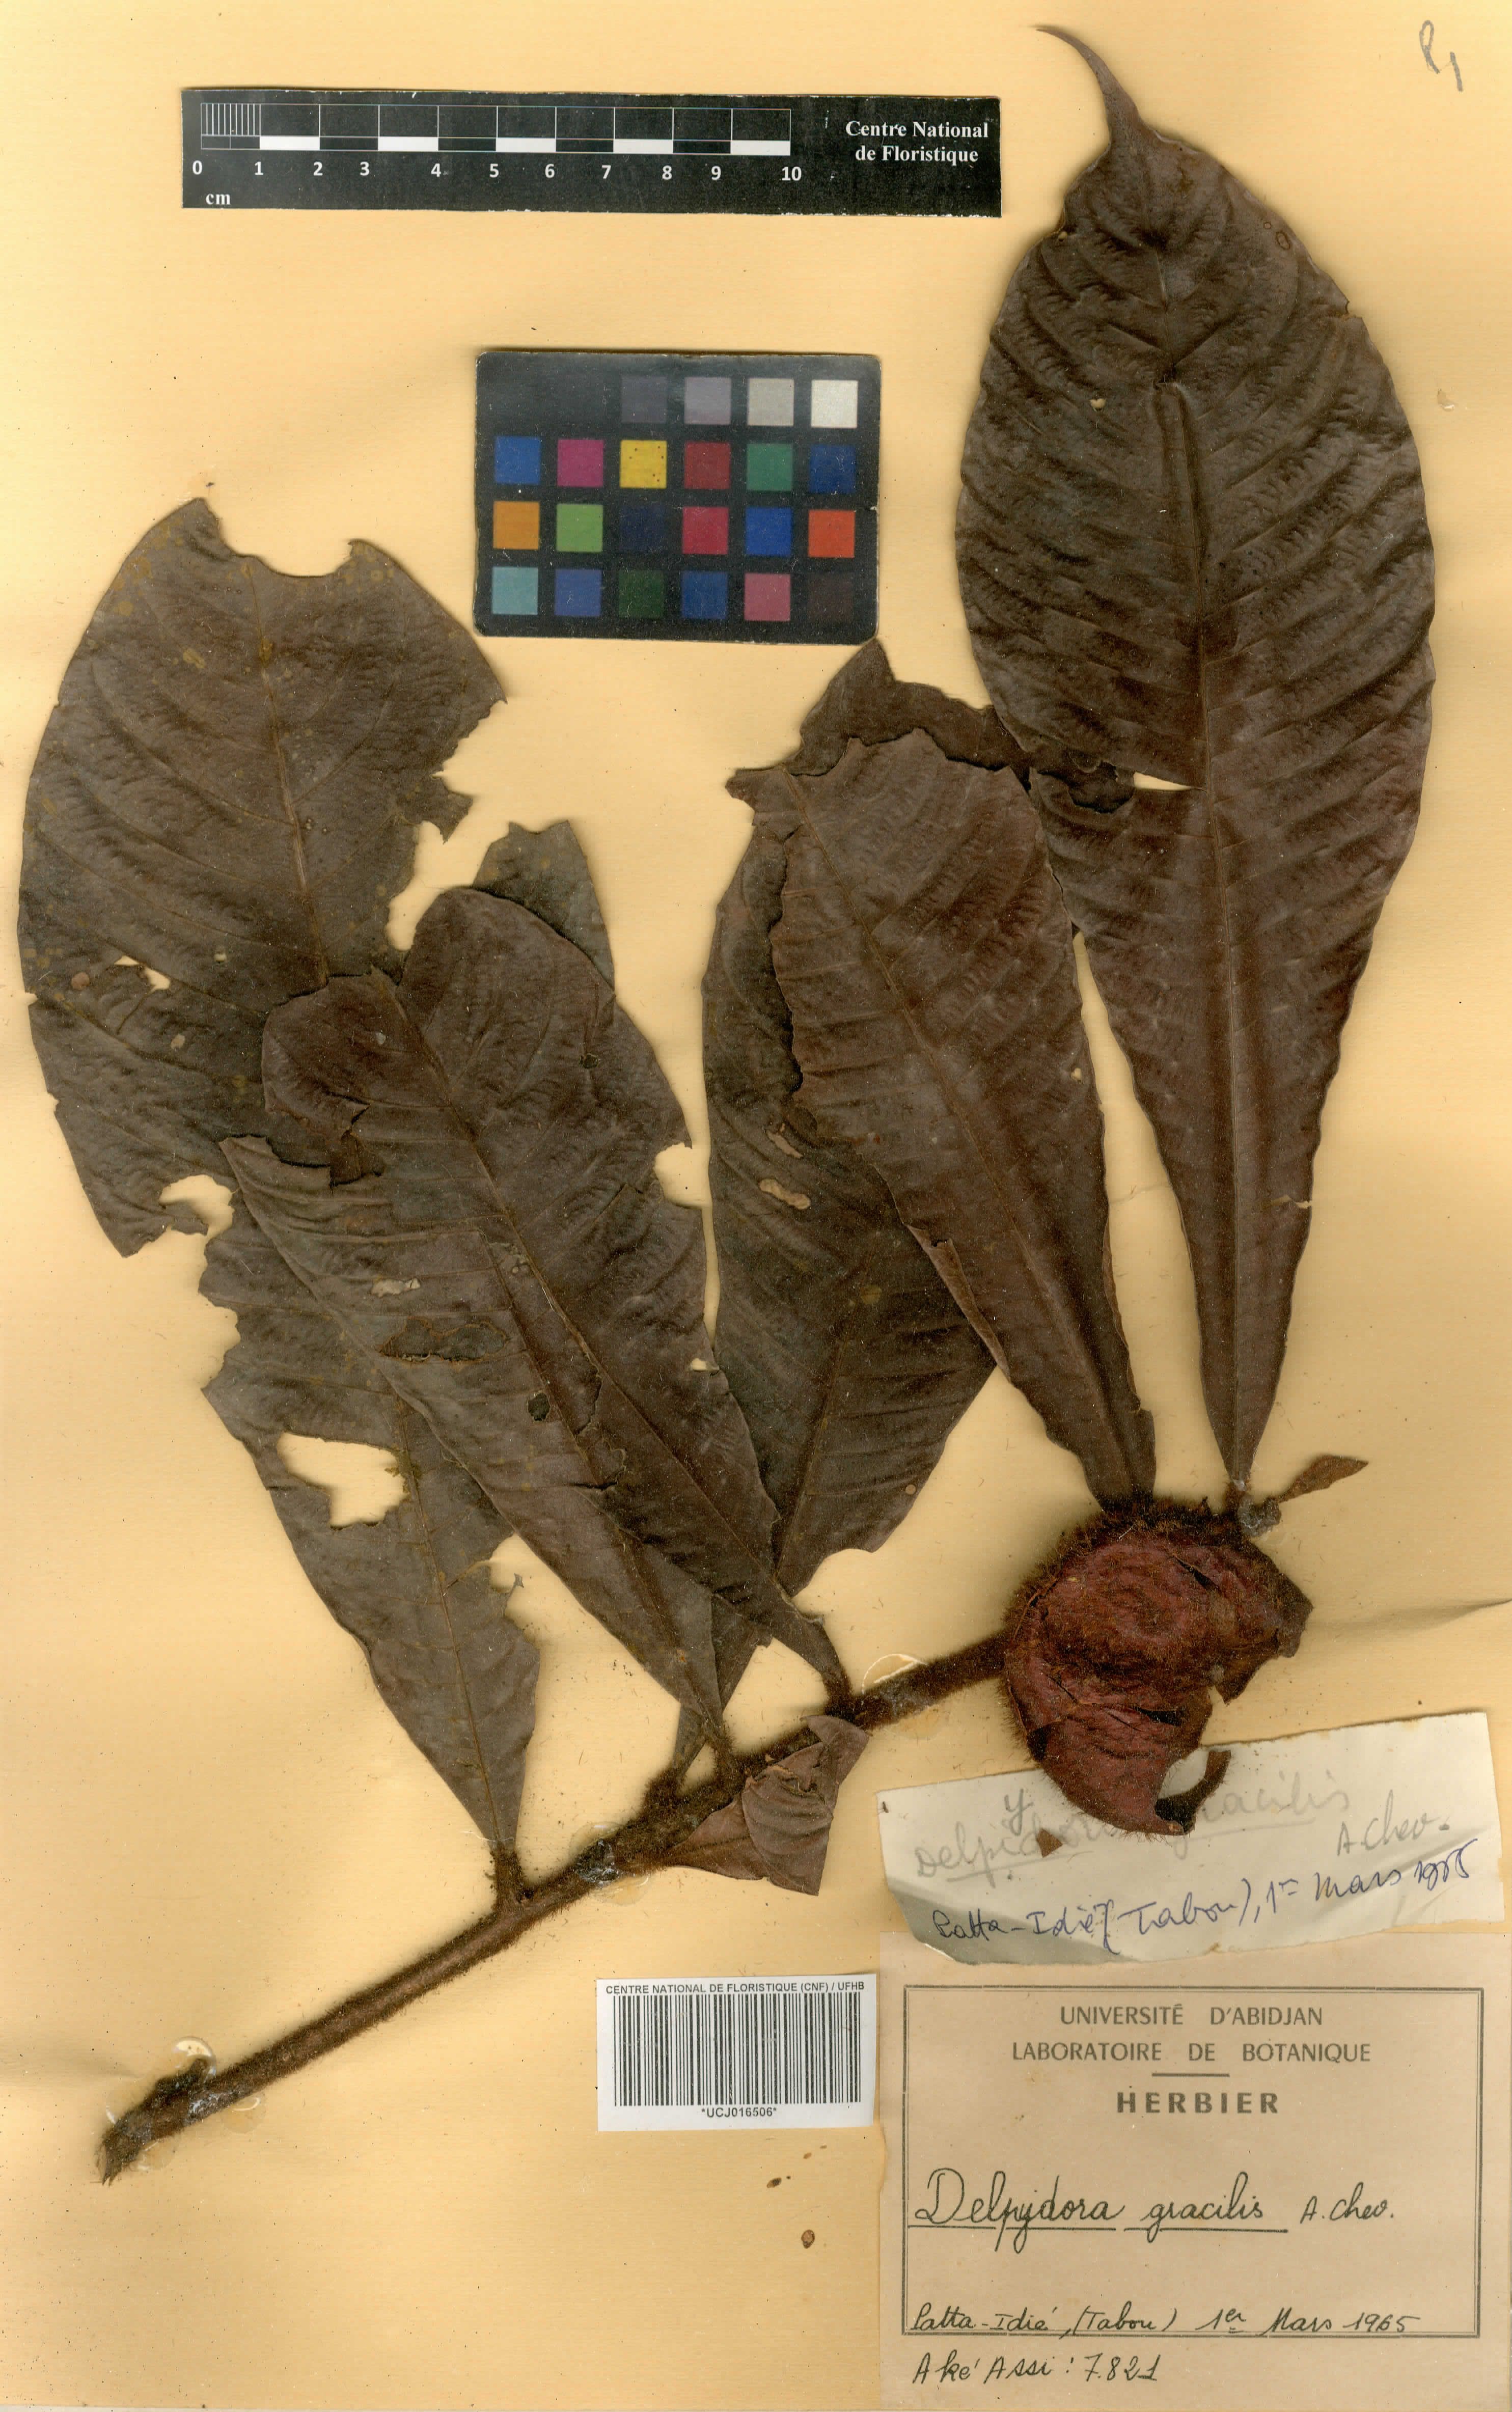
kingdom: Plantae
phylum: Tracheophyta
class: Magnoliopsida
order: Ericales
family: Sapotaceae
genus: Delpydora
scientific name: Delpydora gracilis
